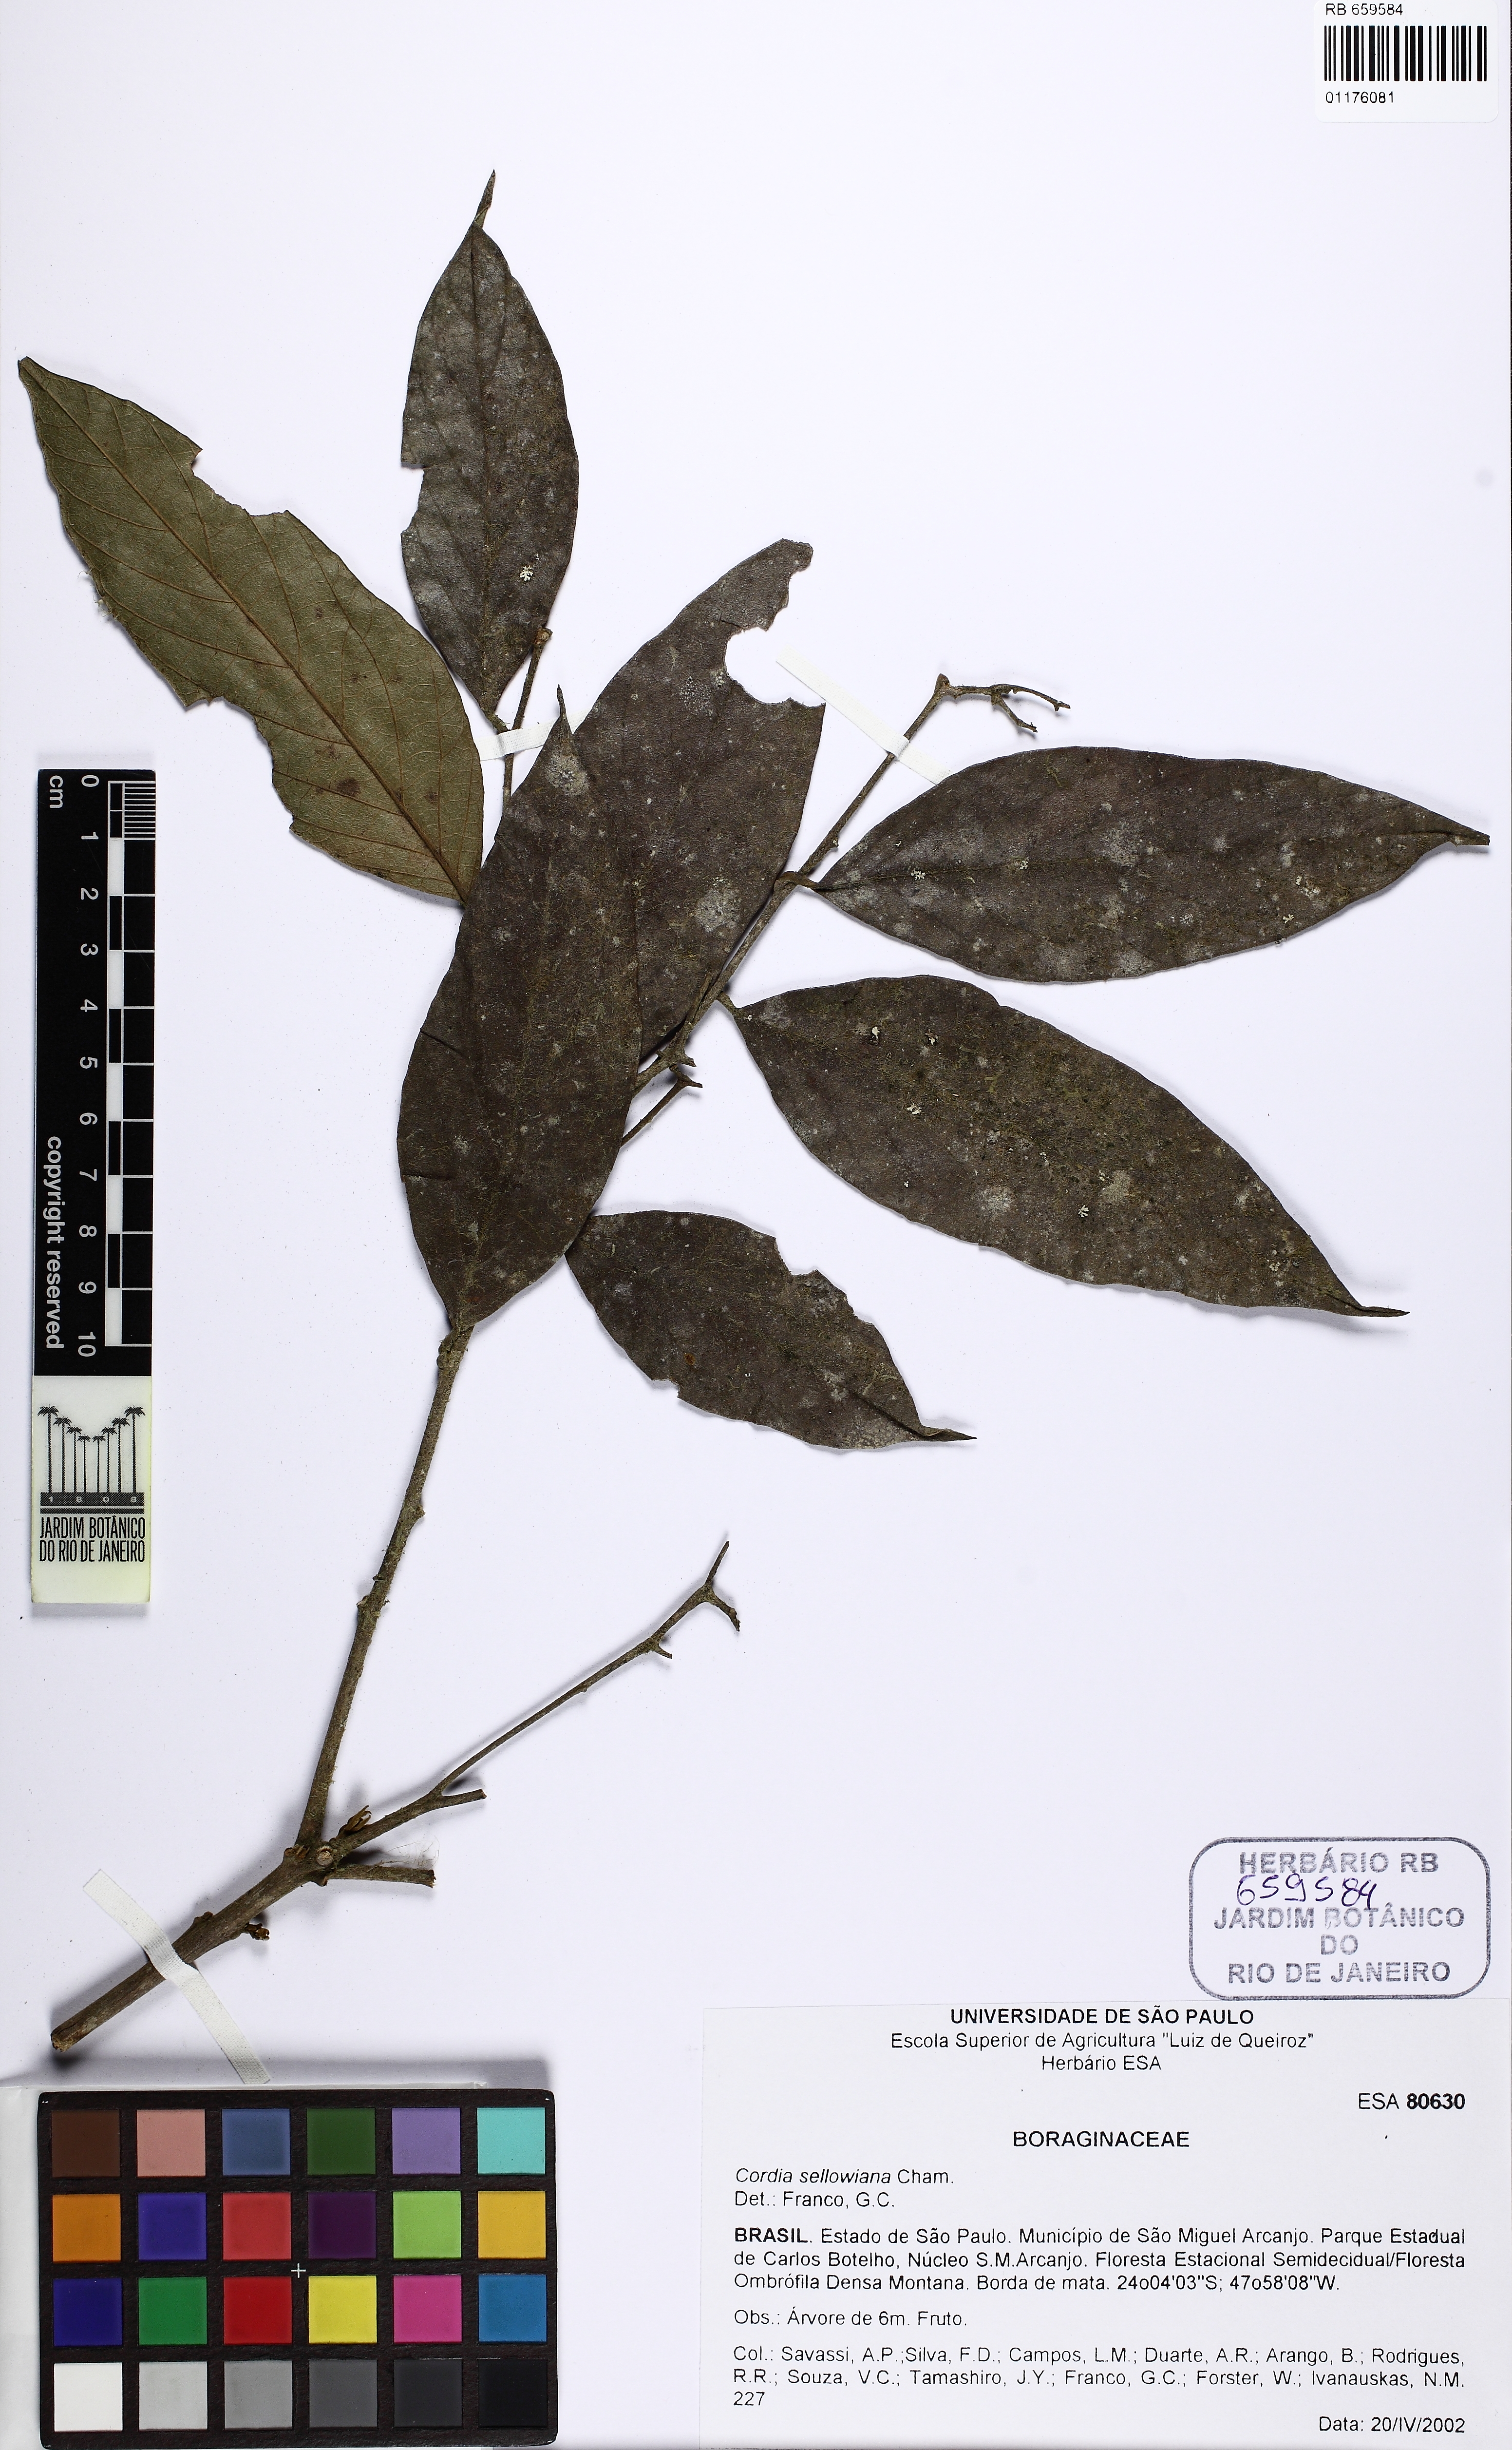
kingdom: Plantae
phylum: Tracheophyta
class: Magnoliopsida
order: Boraginales
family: Boraginaceae
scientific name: Boraginaceae
